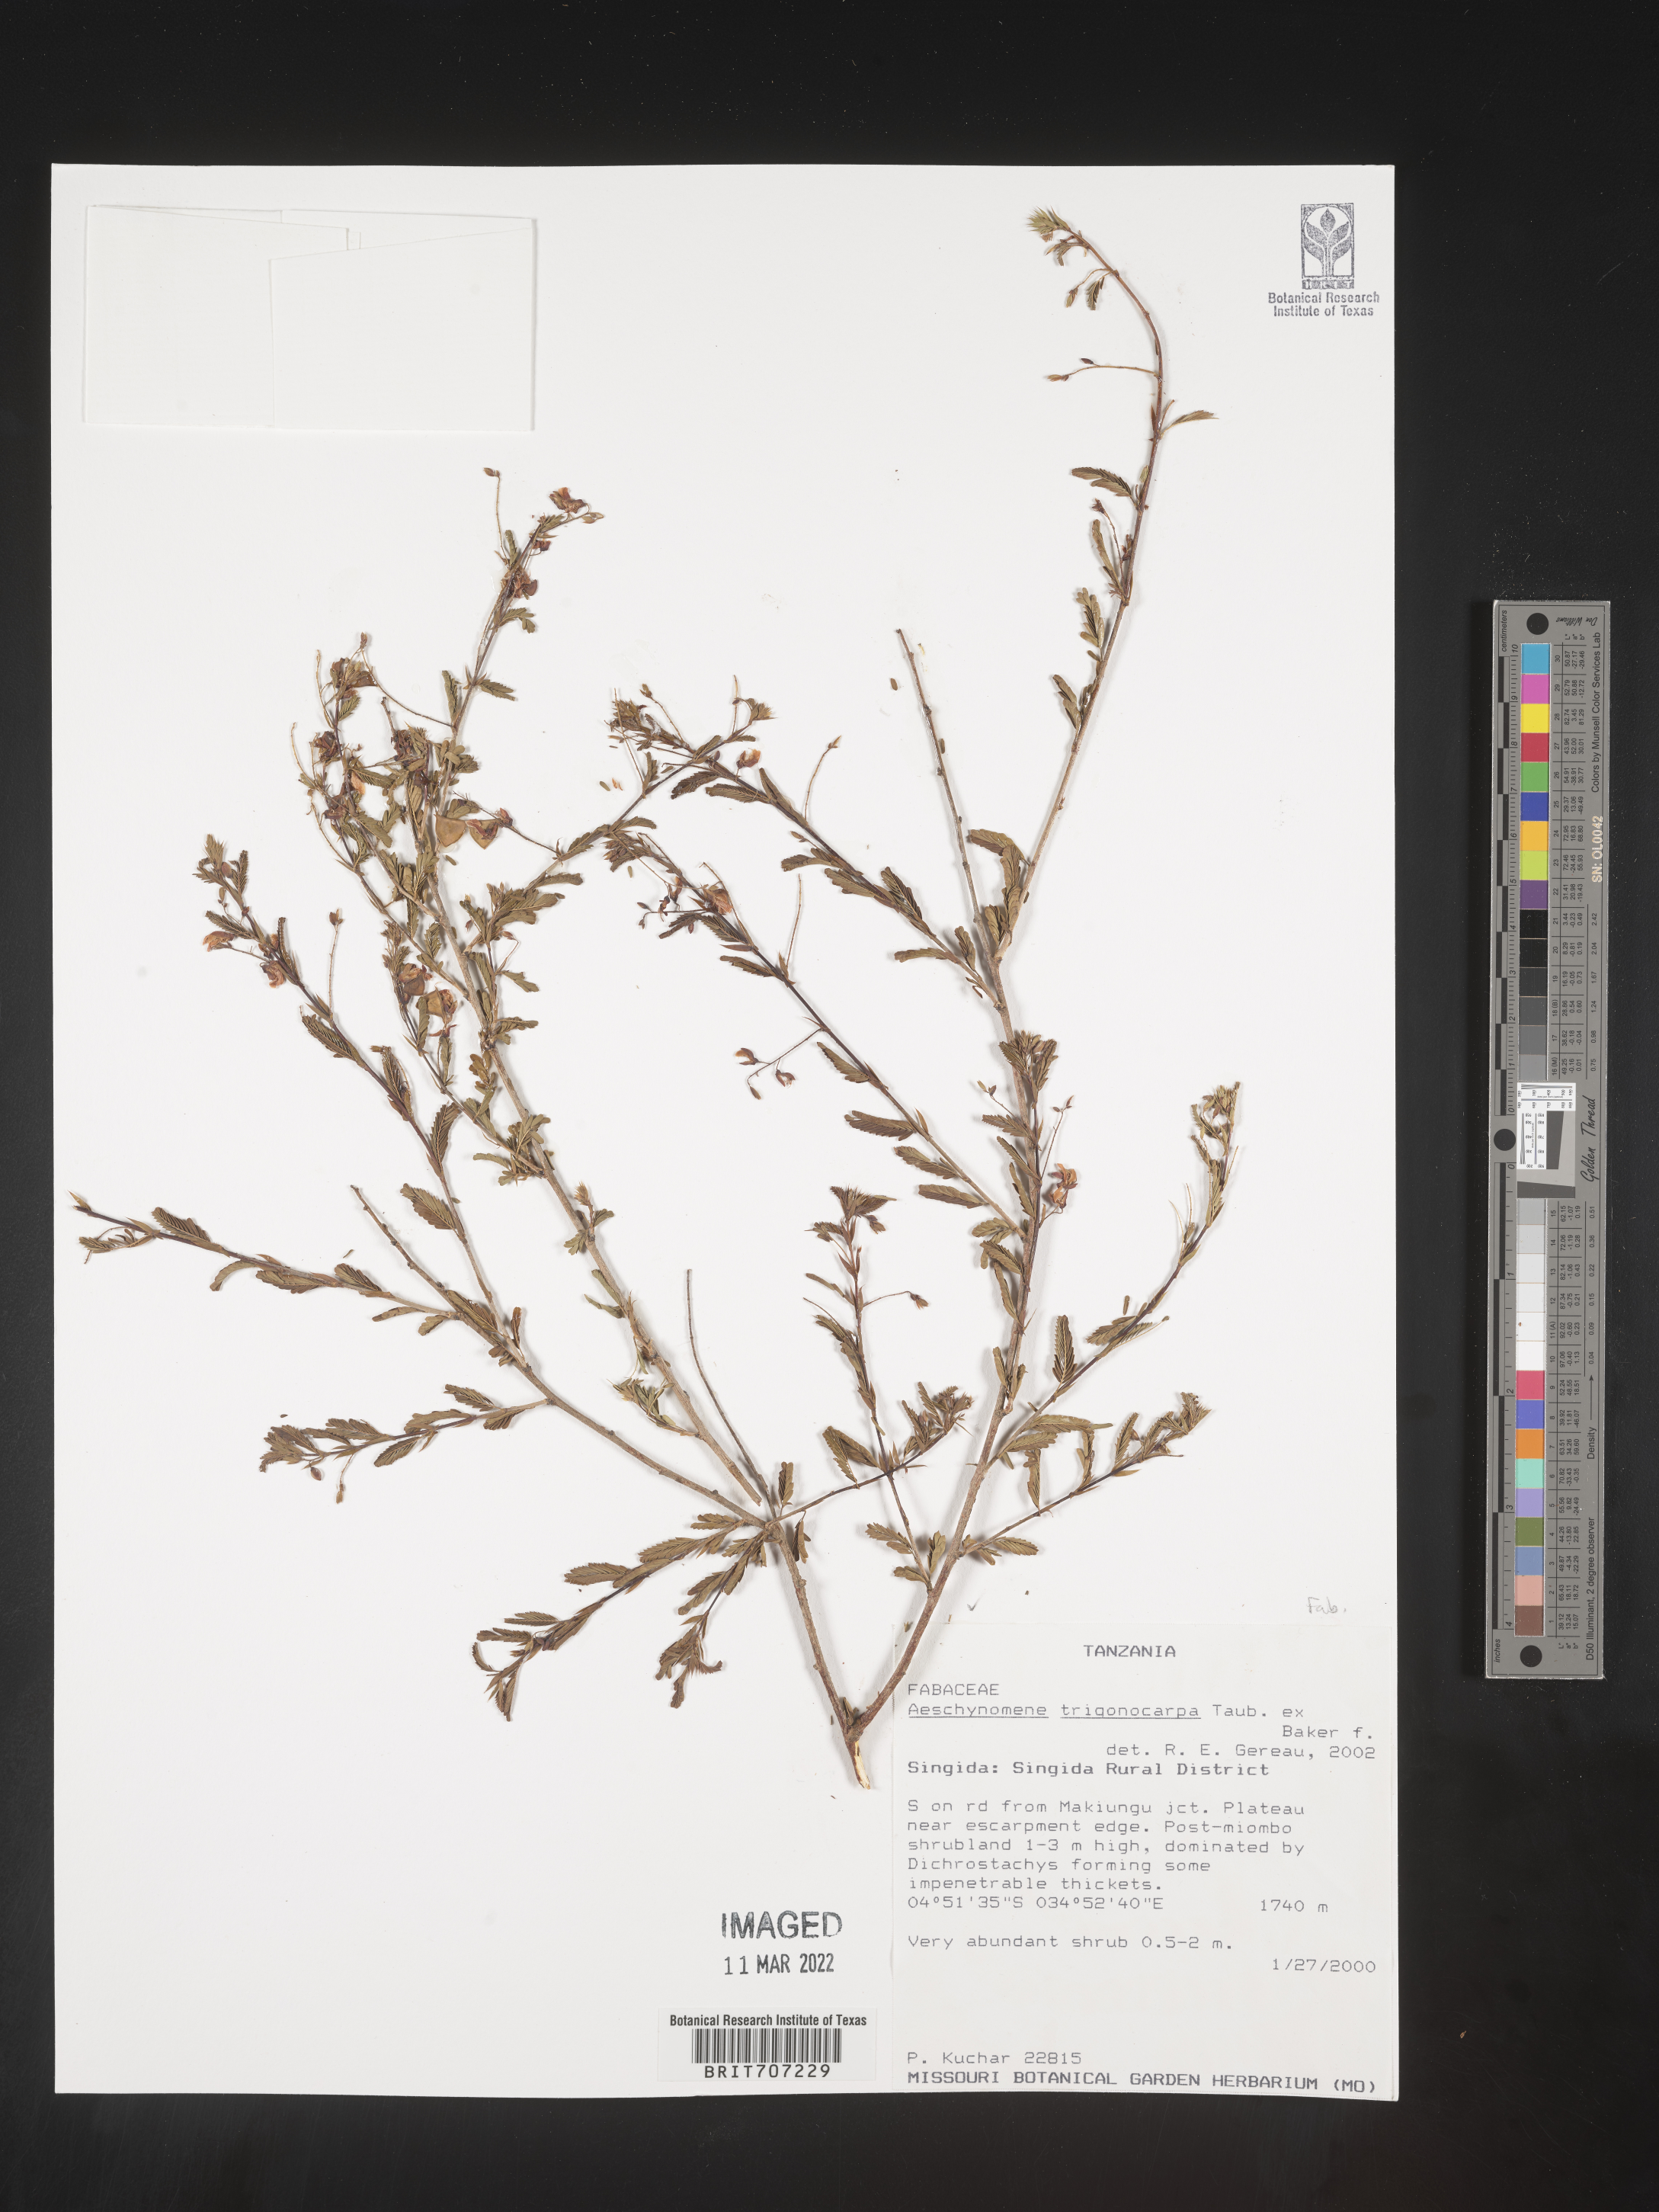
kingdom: Plantae
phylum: Tracheophyta
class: Magnoliopsida
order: Fabales
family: Fabaceae
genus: Aeschynomene
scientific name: Aeschynomene
